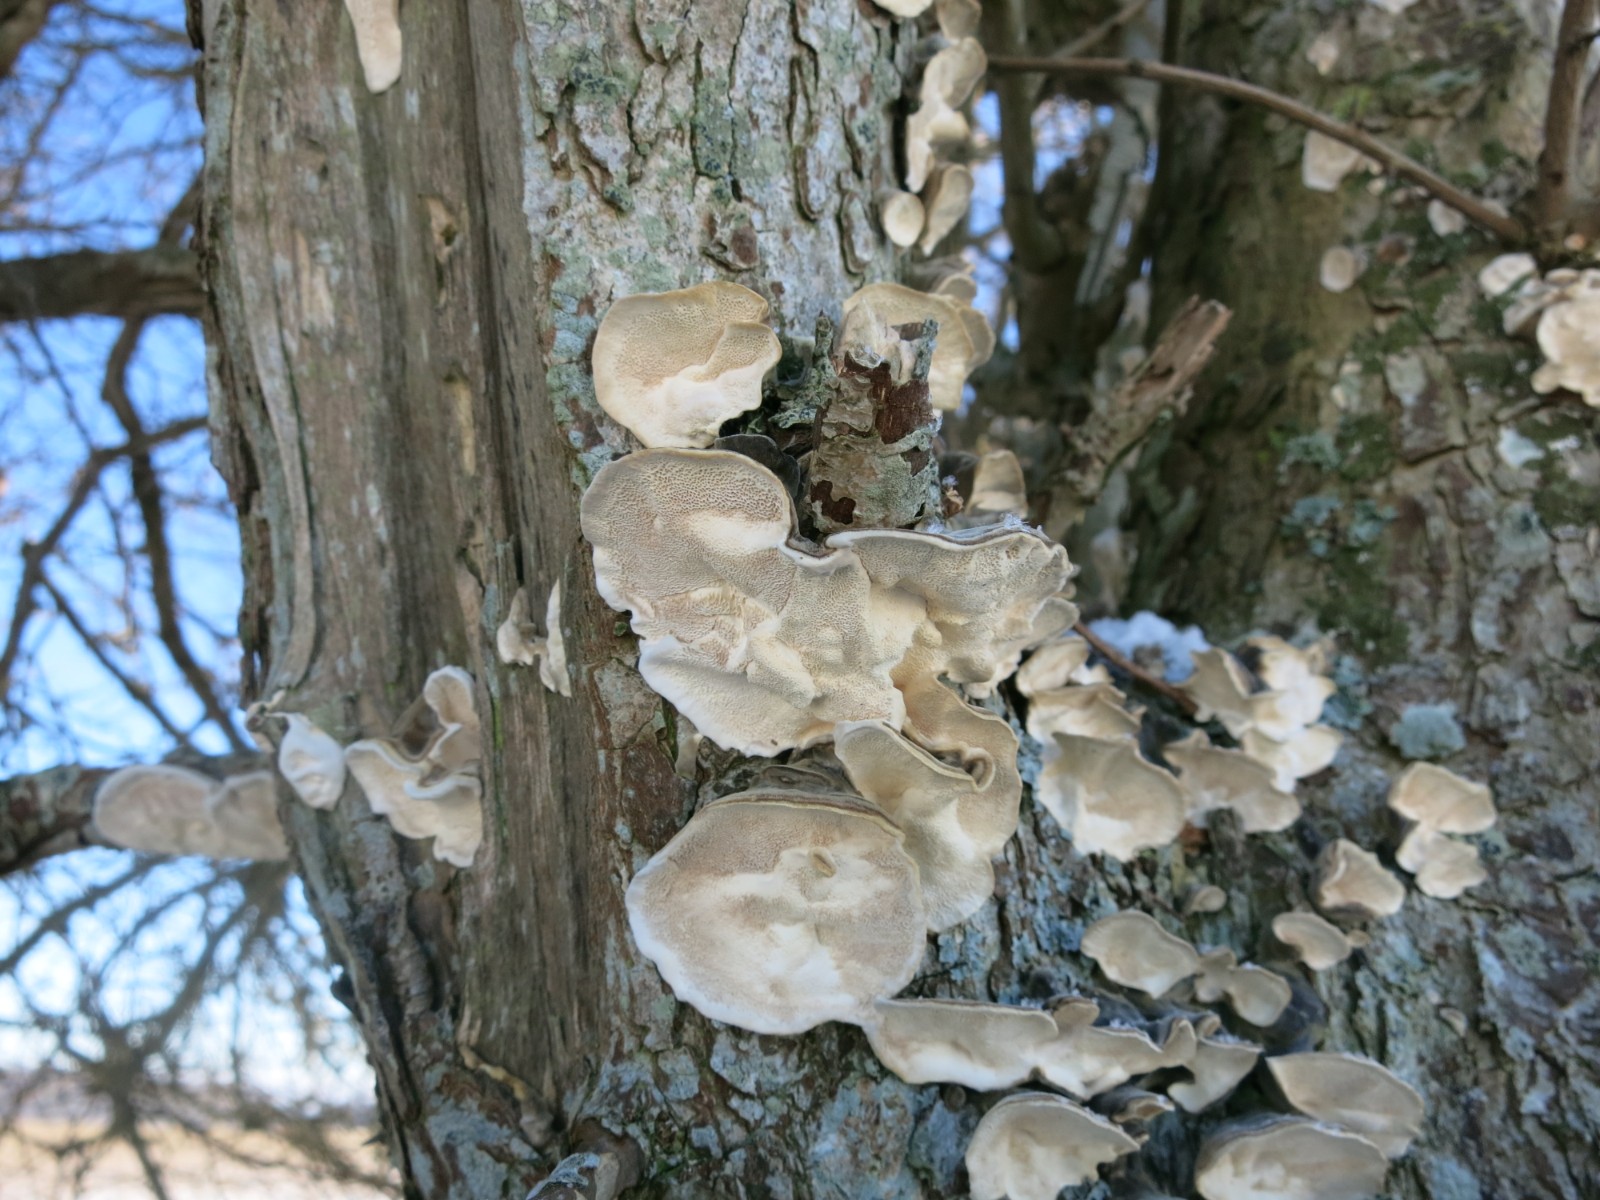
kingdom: Fungi
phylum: Basidiomycota
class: Agaricomycetes
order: Polyporales
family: Polyporaceae
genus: Trametes
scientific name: Trametes versicolor
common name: broget læderporesvamp
